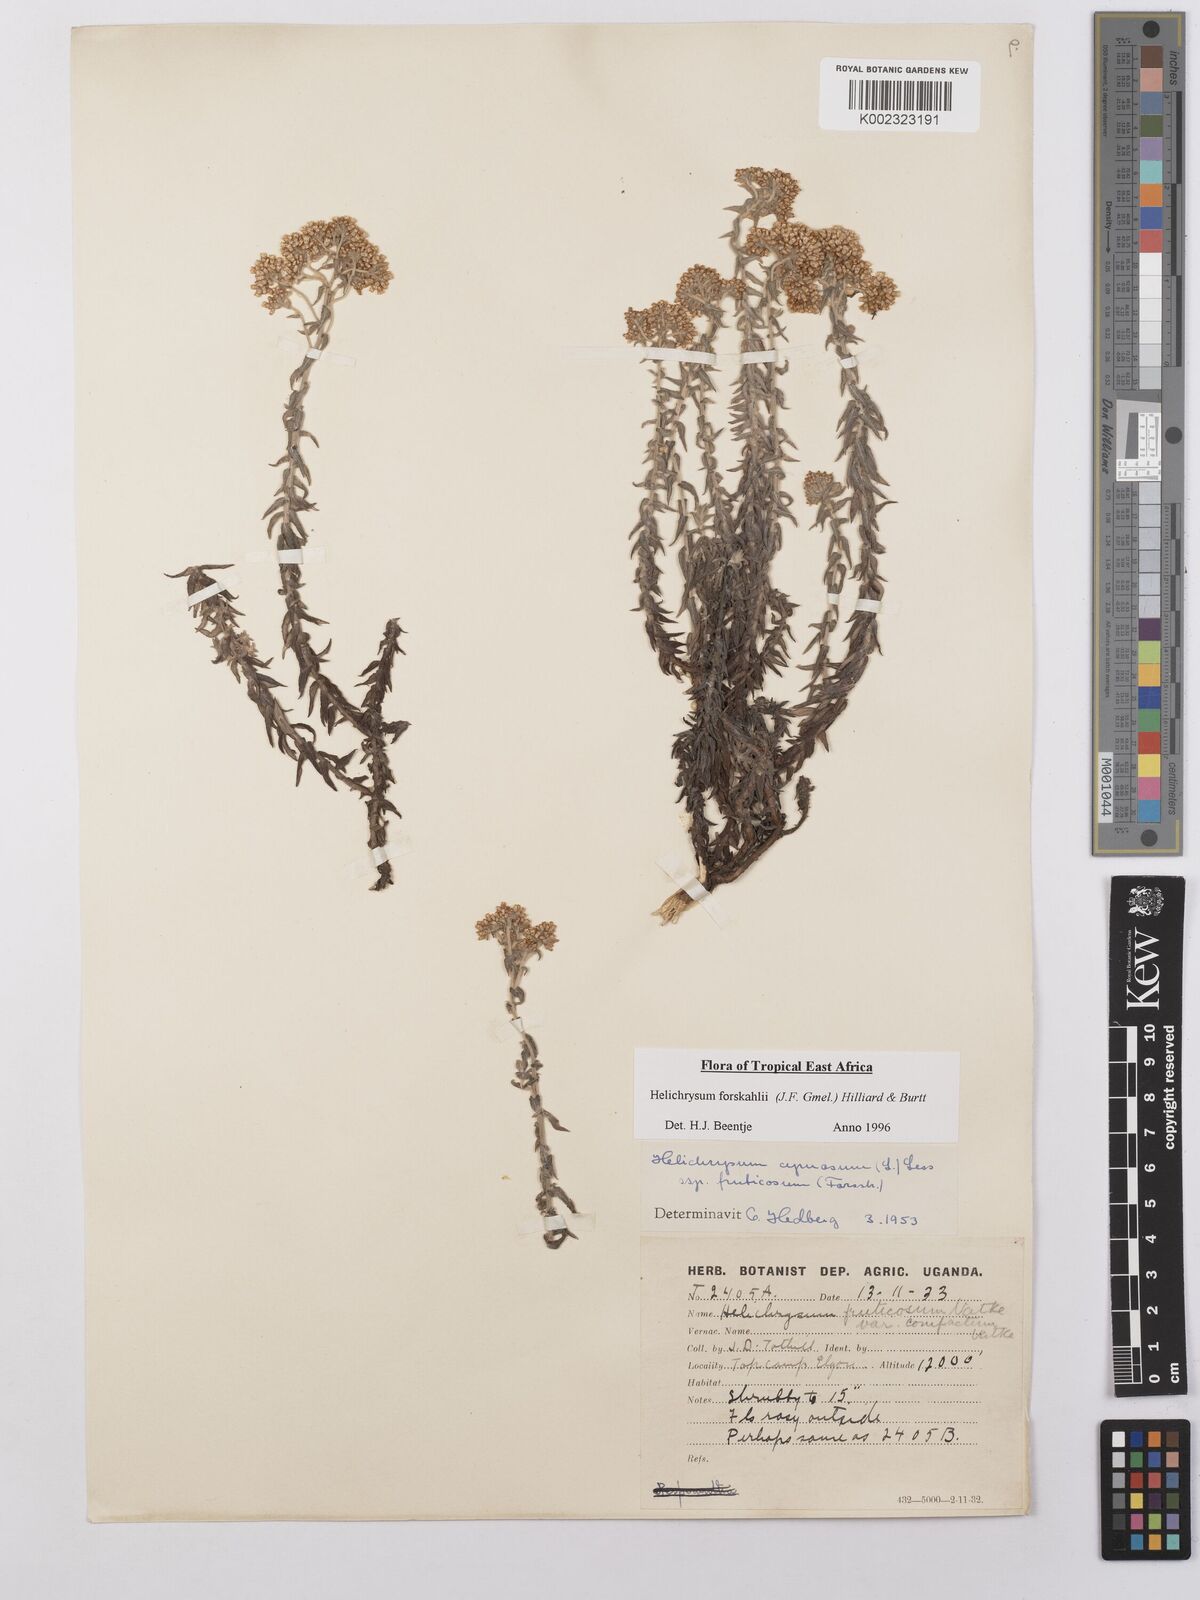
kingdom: Plantae
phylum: Tracheophyta
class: Magnoliopsida
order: Asterales
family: Asteraceae
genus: Helichrysum
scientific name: Helichrysum forskahlii
